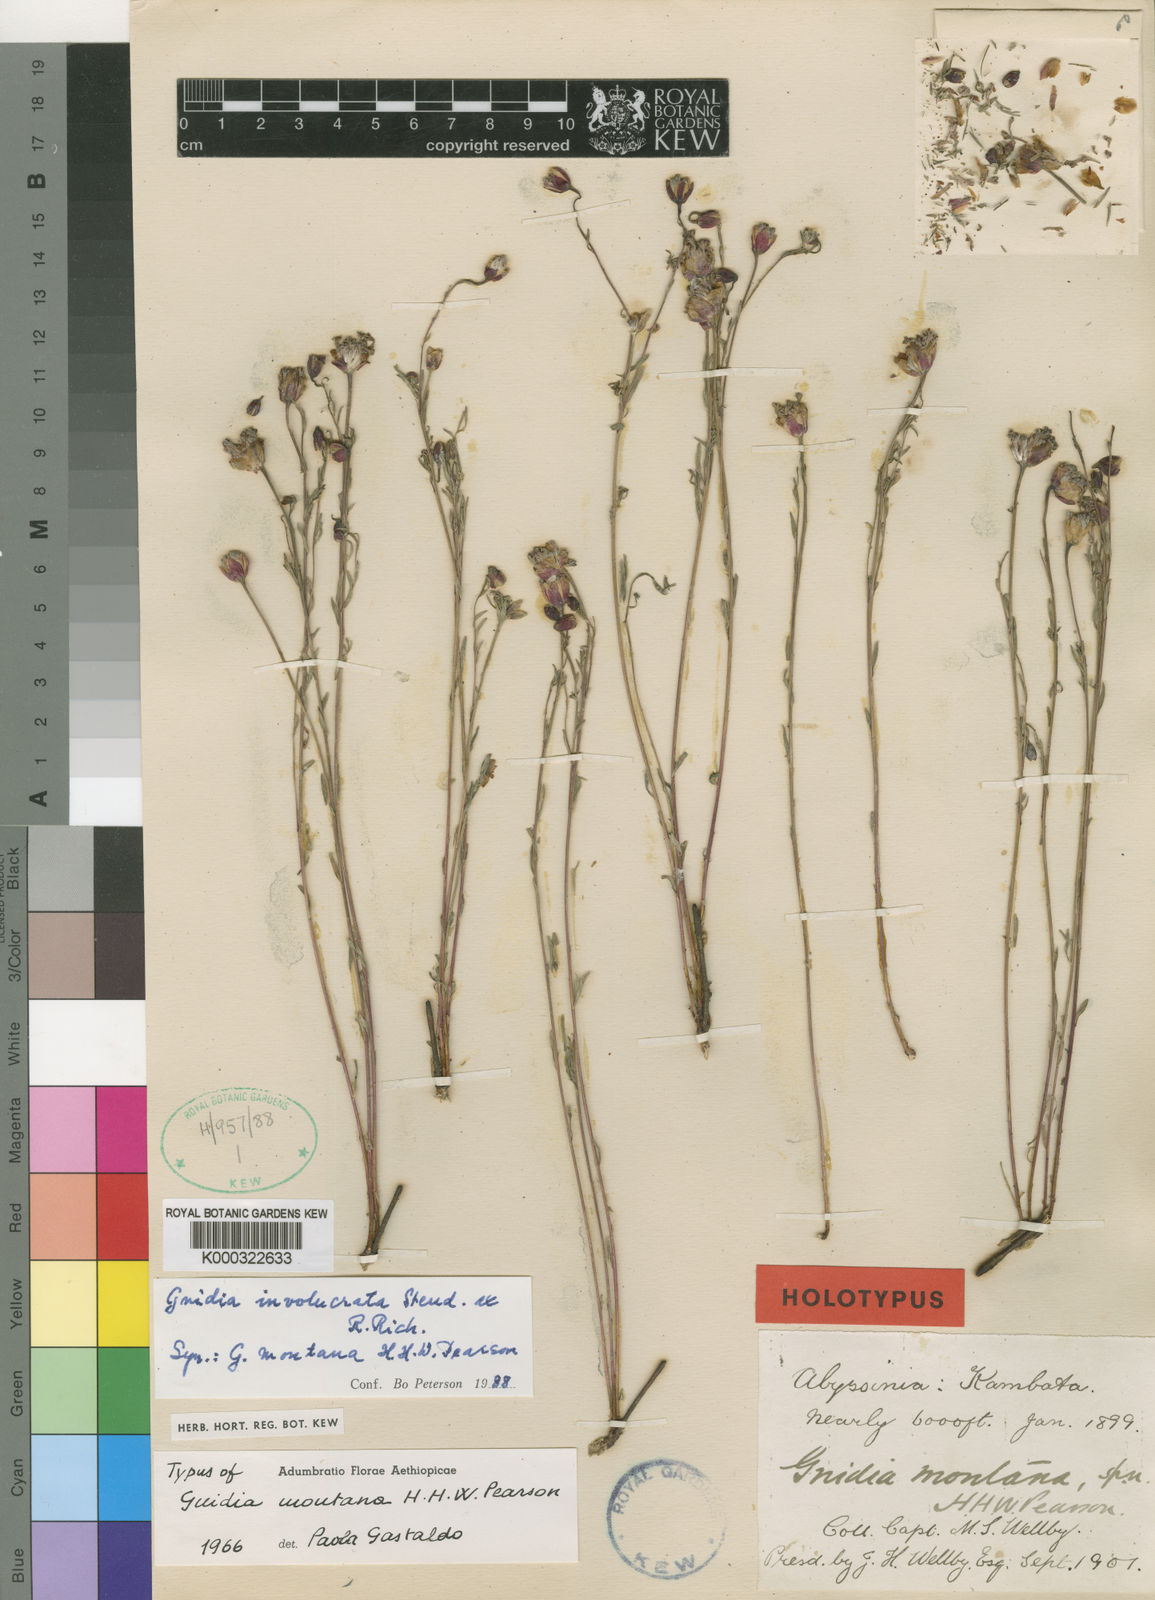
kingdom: Plantae
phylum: Tracheophyta
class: Magnoliopsida
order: Malvales
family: Thymelaeaceae
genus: Gnidia
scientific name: Gnidia involucrata
